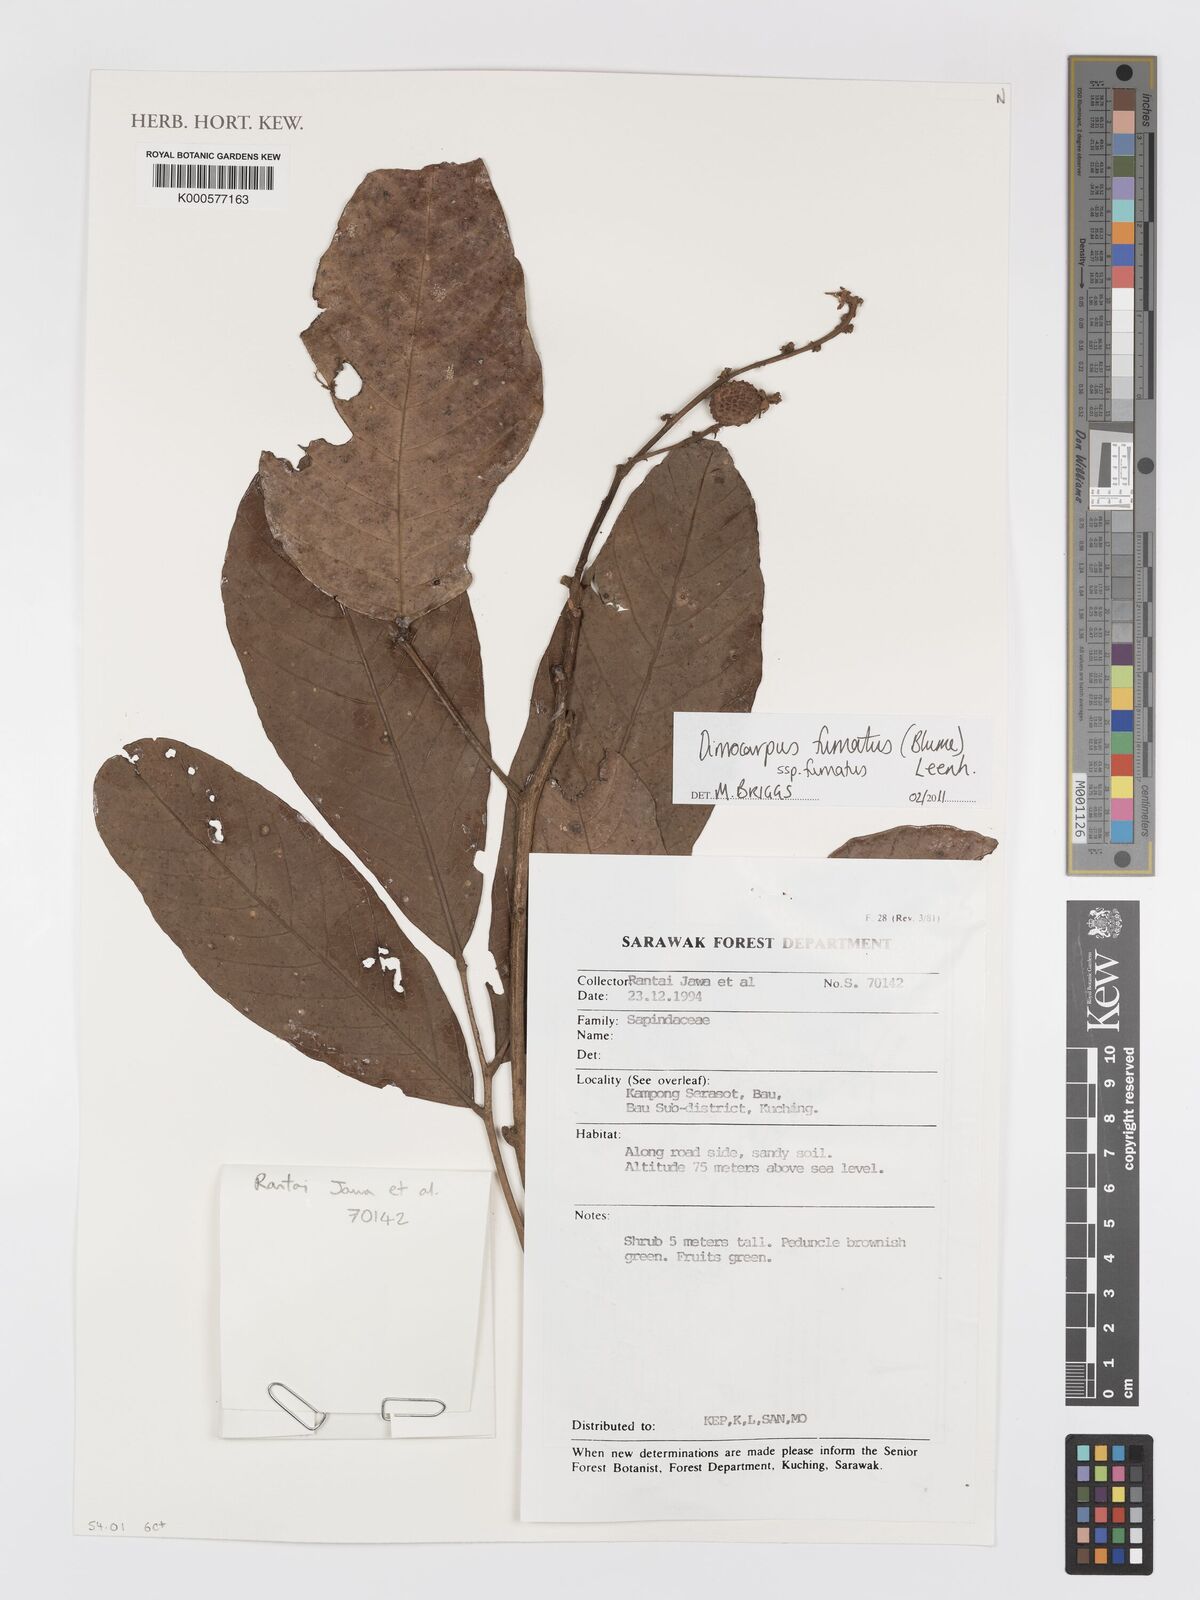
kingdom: Plantae
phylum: Tracheophyta
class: Magnoliopsida
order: Sapindales
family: Sapindaceae
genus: Dimocarpus
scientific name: Dimocarpus fumatus
